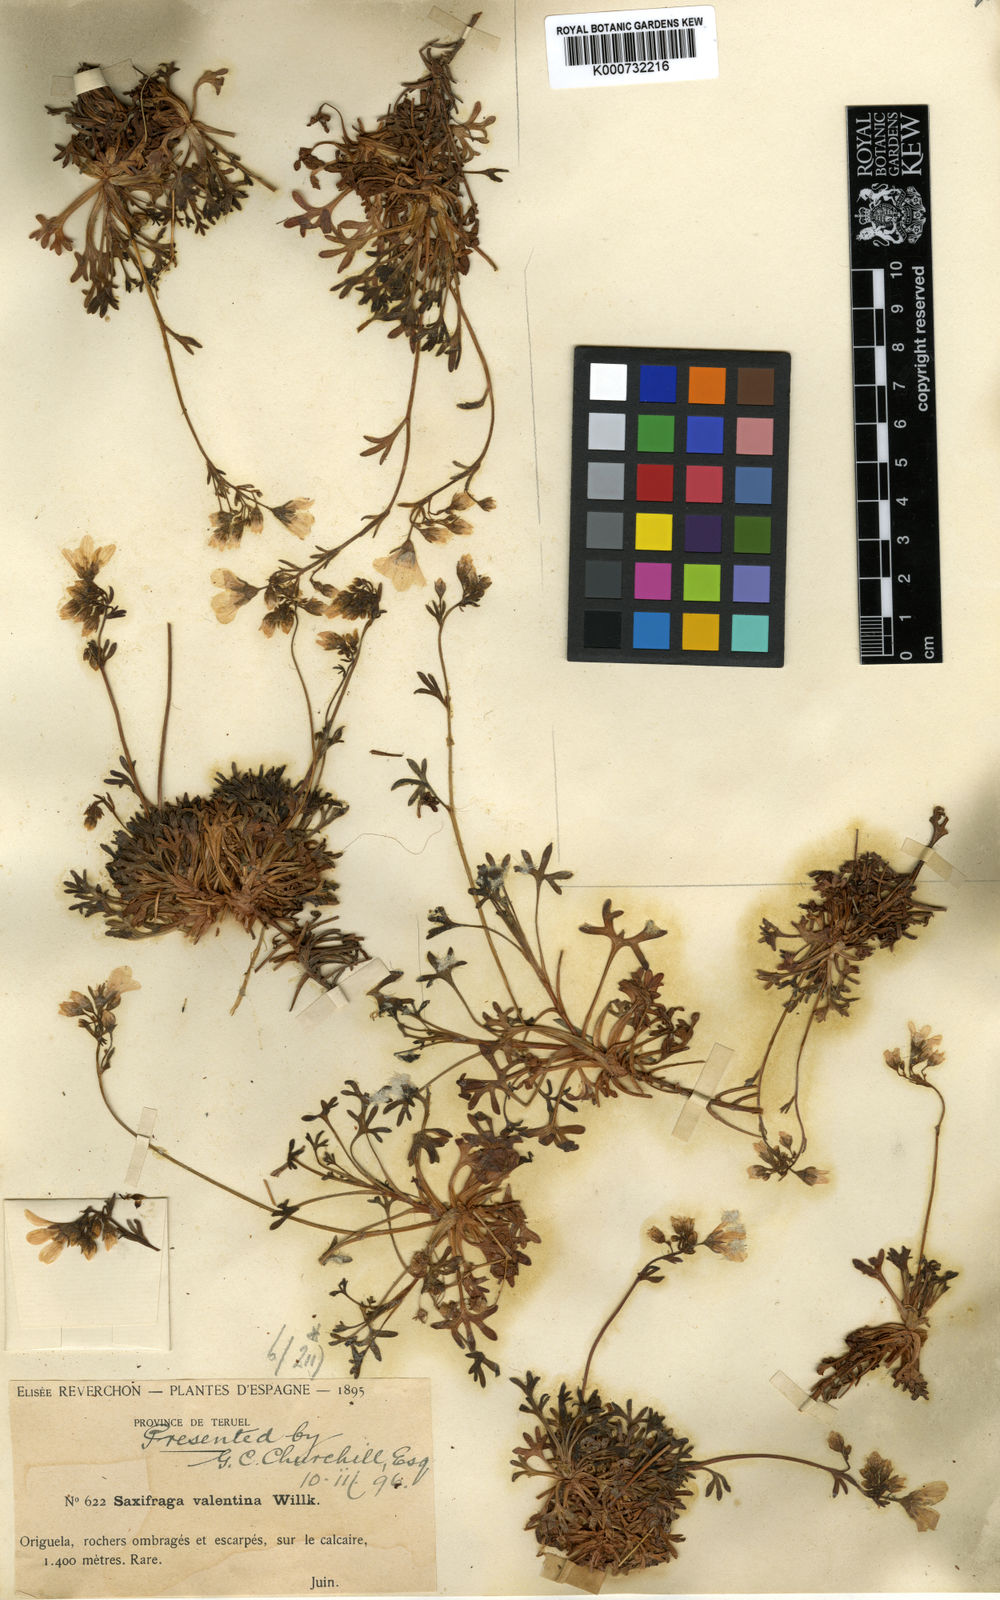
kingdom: Plantae
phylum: Tracheophyta
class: Magnoliopsida
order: Saxifragales
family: Saxifragaceae
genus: Saxifraga
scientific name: Saxifraga cuneata
